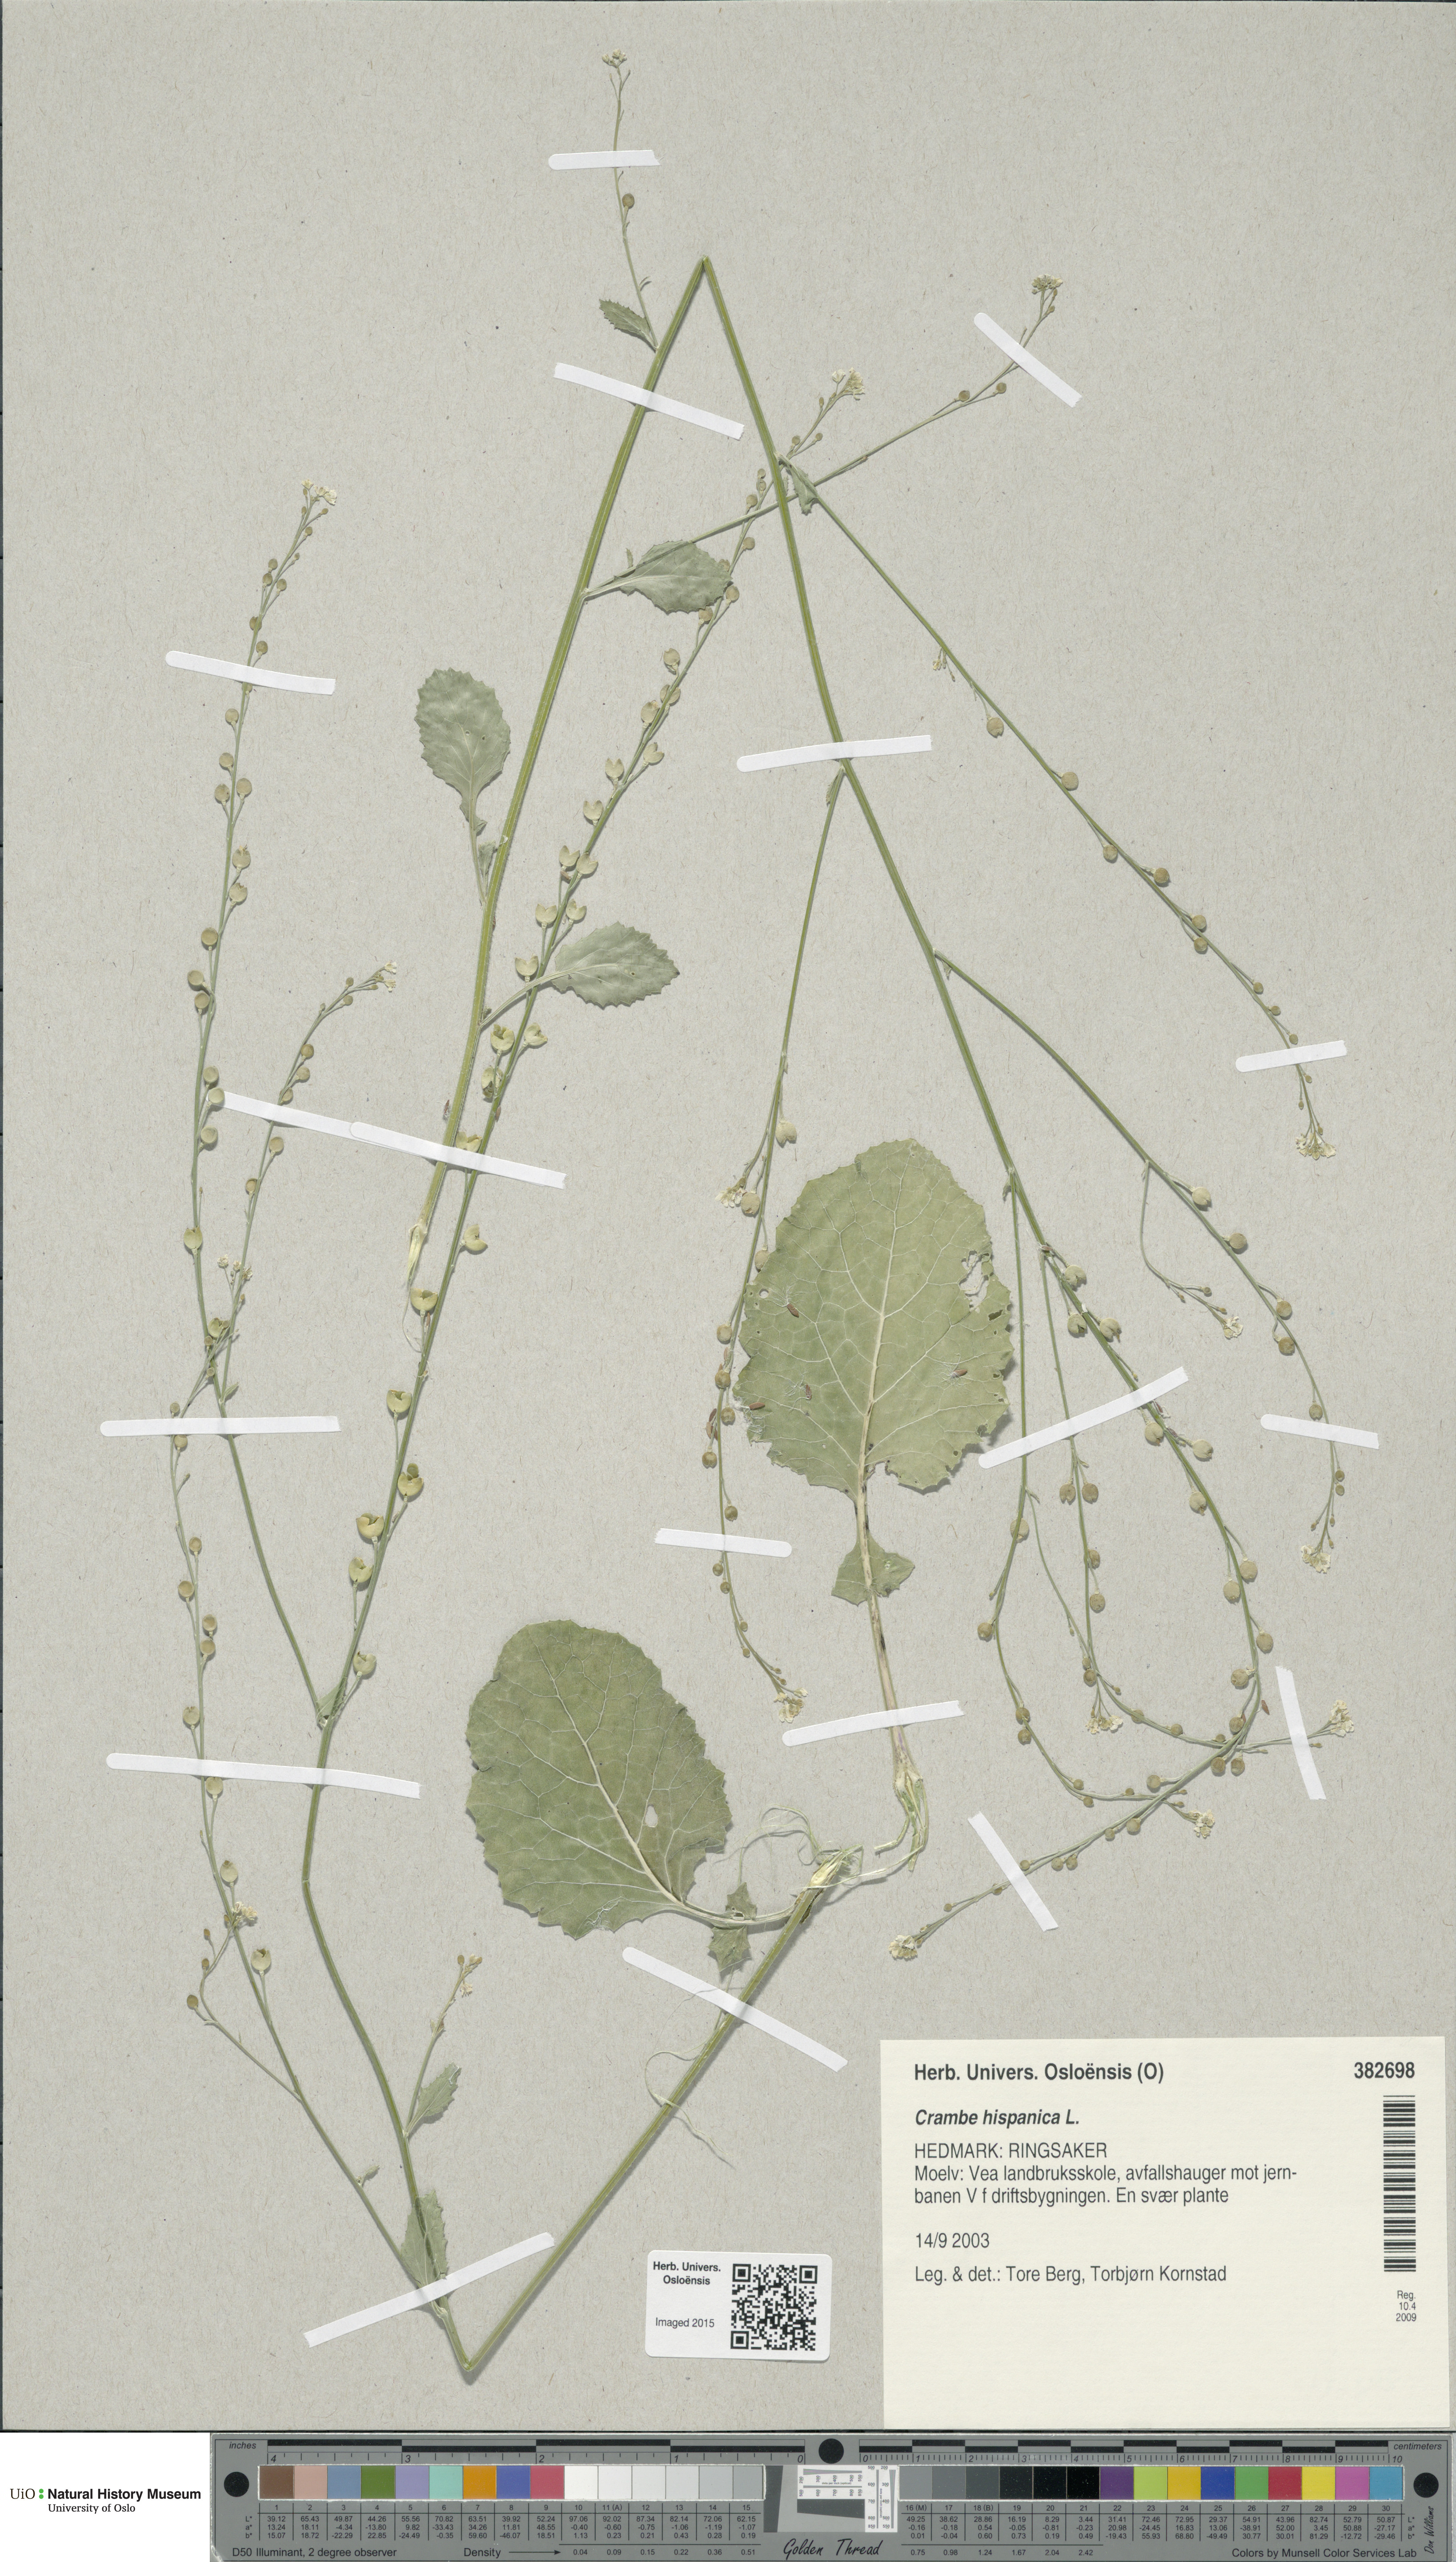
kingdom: Plantae
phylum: Tracheophyta
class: Magnoliopsida
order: Brassicales
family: Brassicaceae
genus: Crambe
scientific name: Crambe hispanica
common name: Abyssinian mustard
